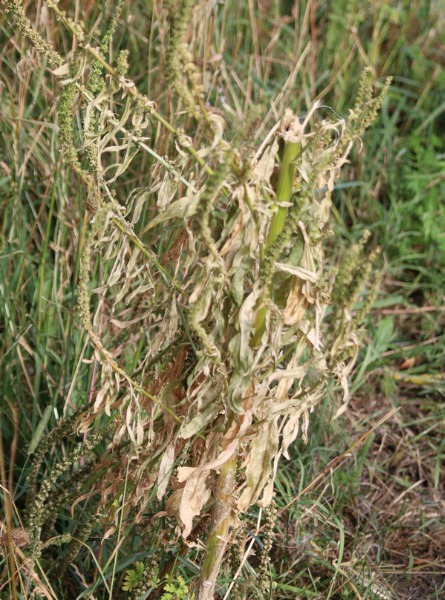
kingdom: Plantae
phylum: Tracheophyta
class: Magnoliopsida
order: Brassicales
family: Resedaceae
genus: Reseda
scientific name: Reseda luteola
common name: Farve-reseda
